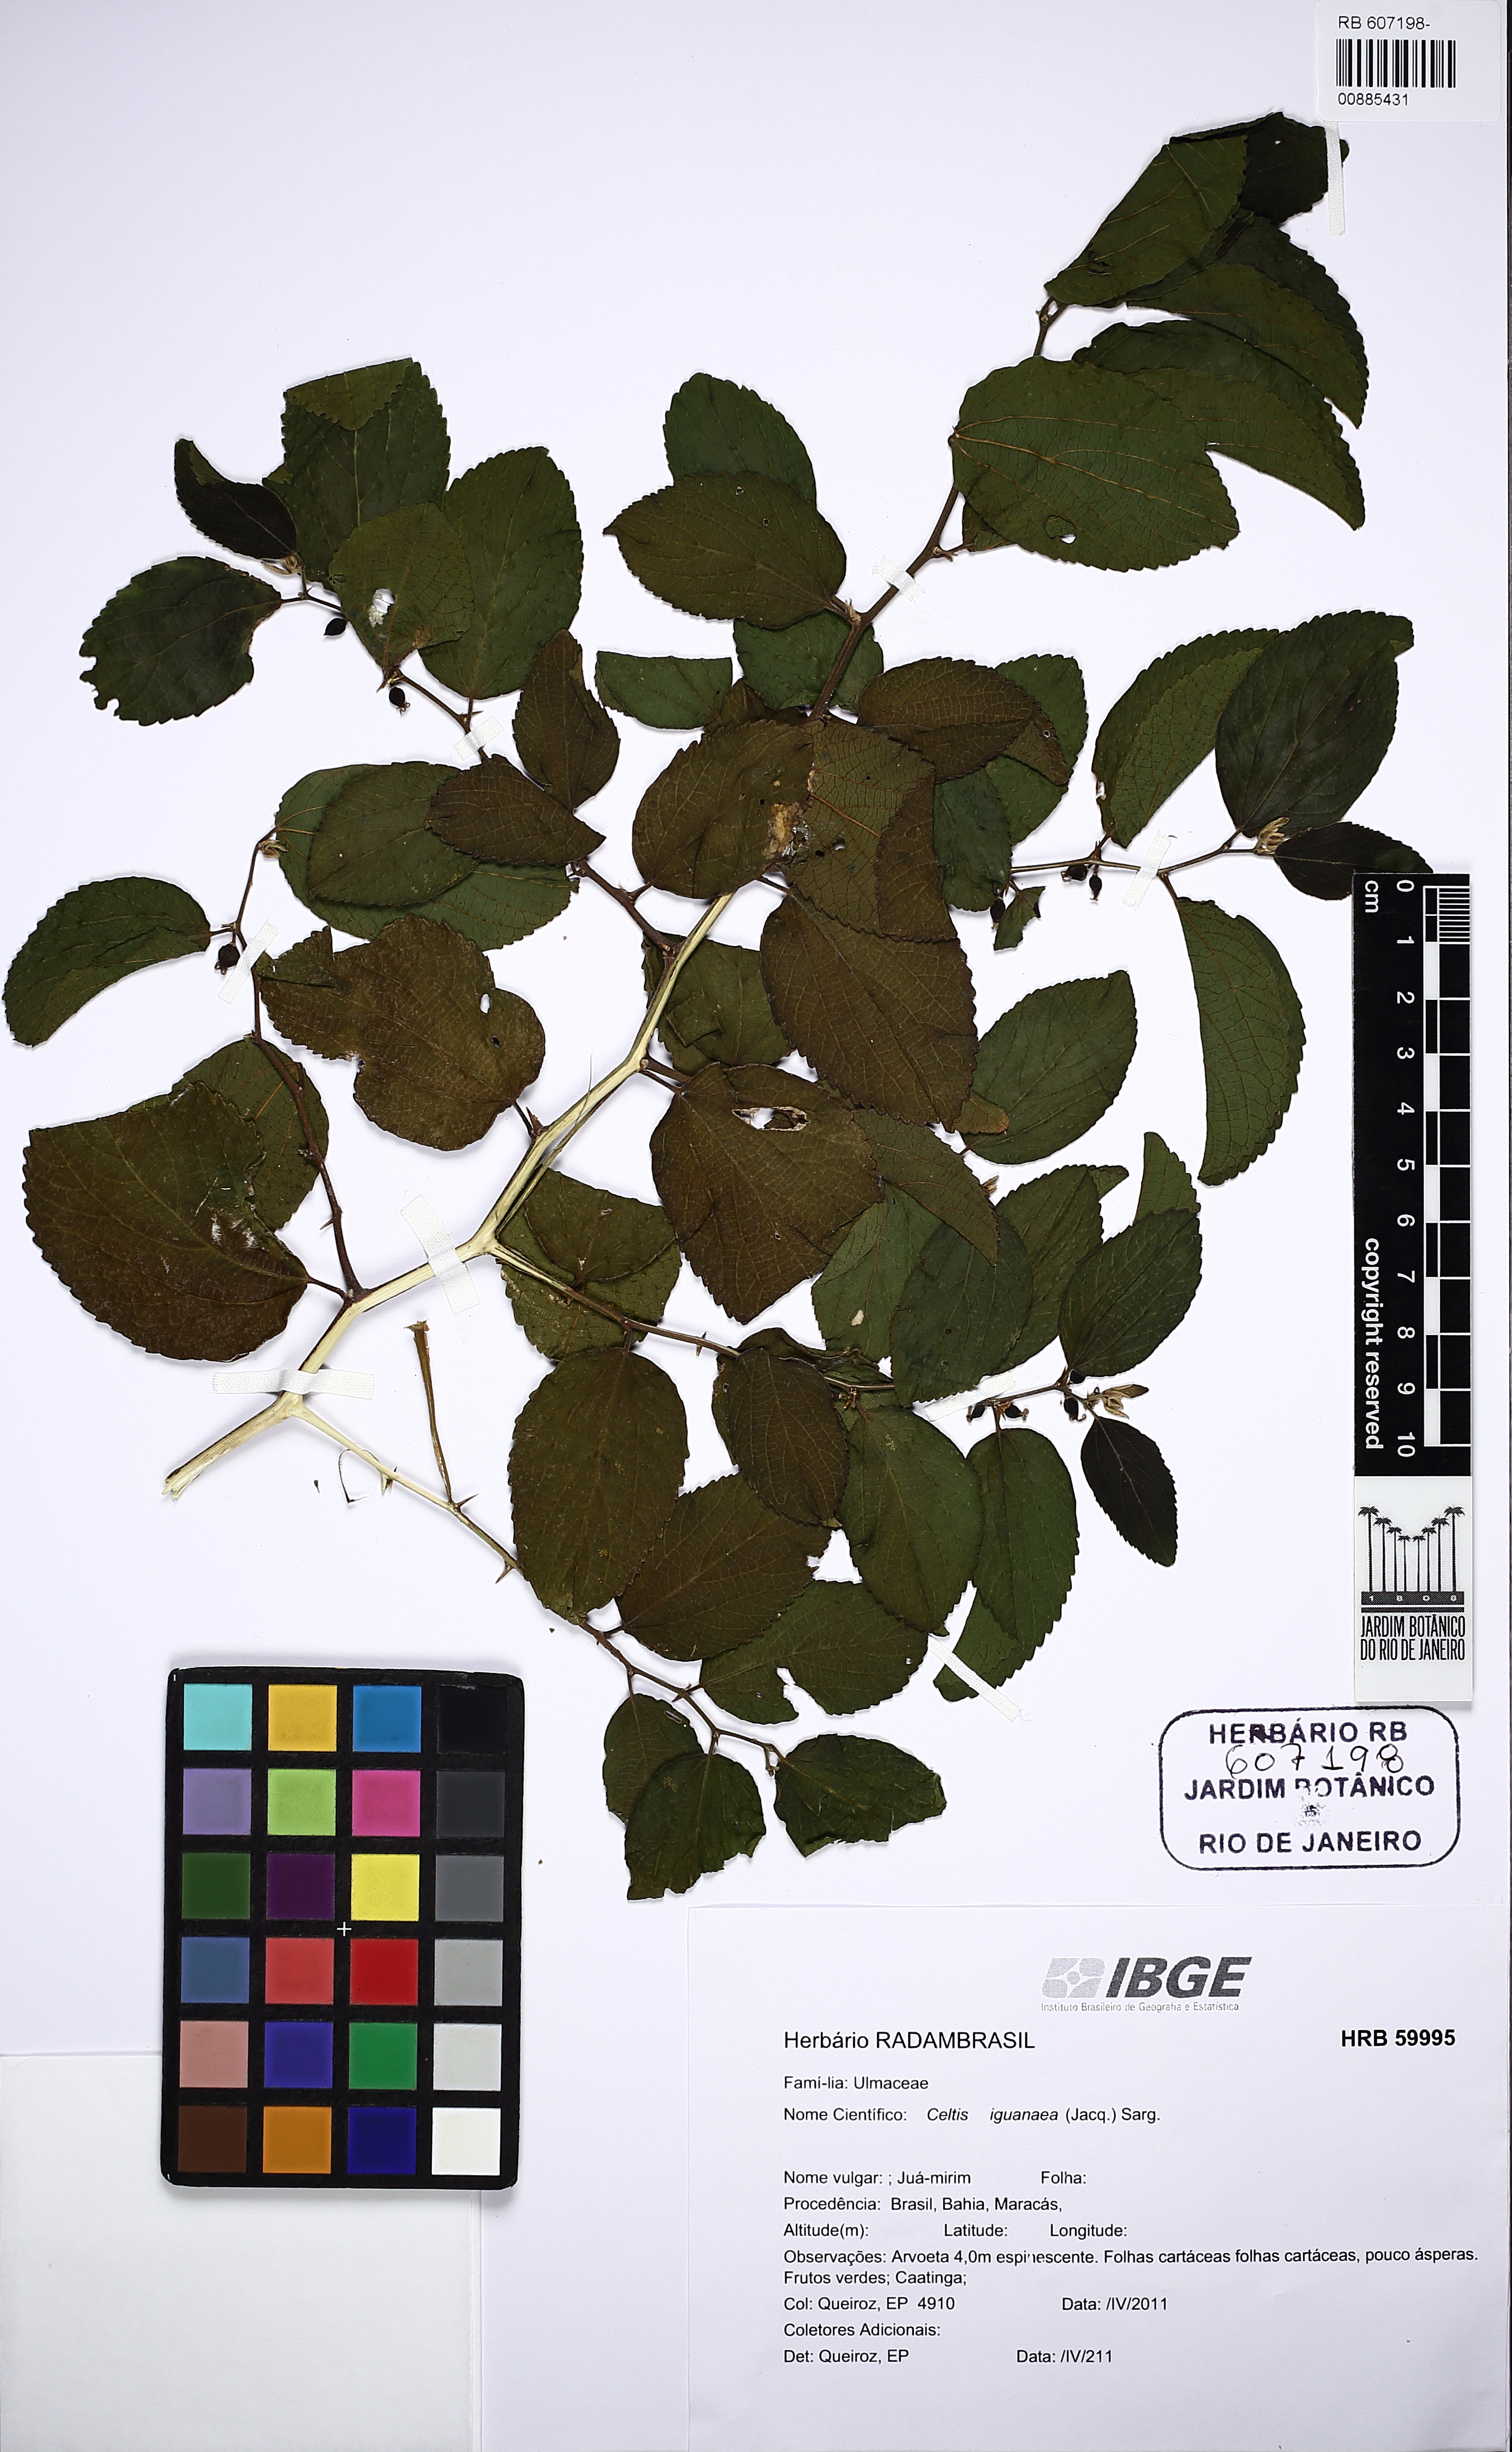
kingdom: Plantae
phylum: Tracheophyta
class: Magnoliopsida
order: Rosales
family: Cannabaceae
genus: Celtis
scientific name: Celtis iguanaea
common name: Iguana hackberry
